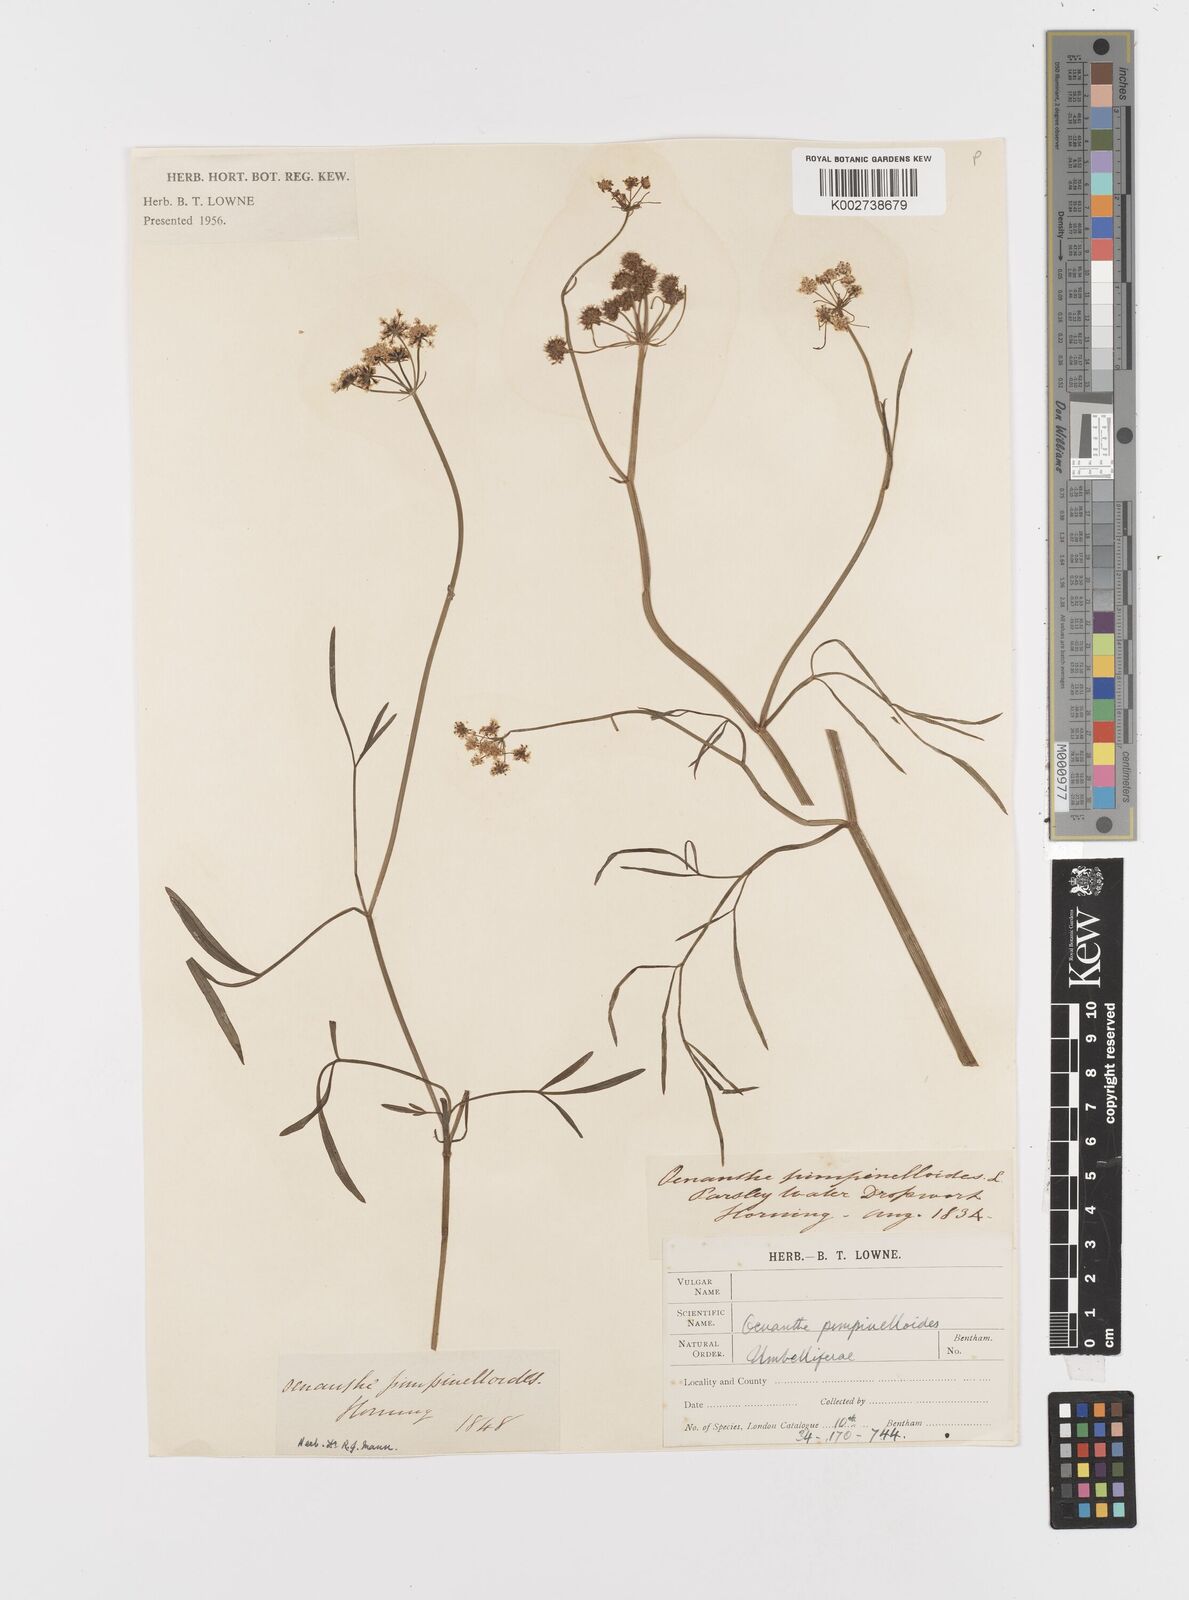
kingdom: Plantae
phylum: Tracheophyta
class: Magnoliopsida
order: Apiales
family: Apiaceae
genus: Oenanthe
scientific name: Oenanthe pimpinelloides
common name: Corky-fruited water-dropwort
